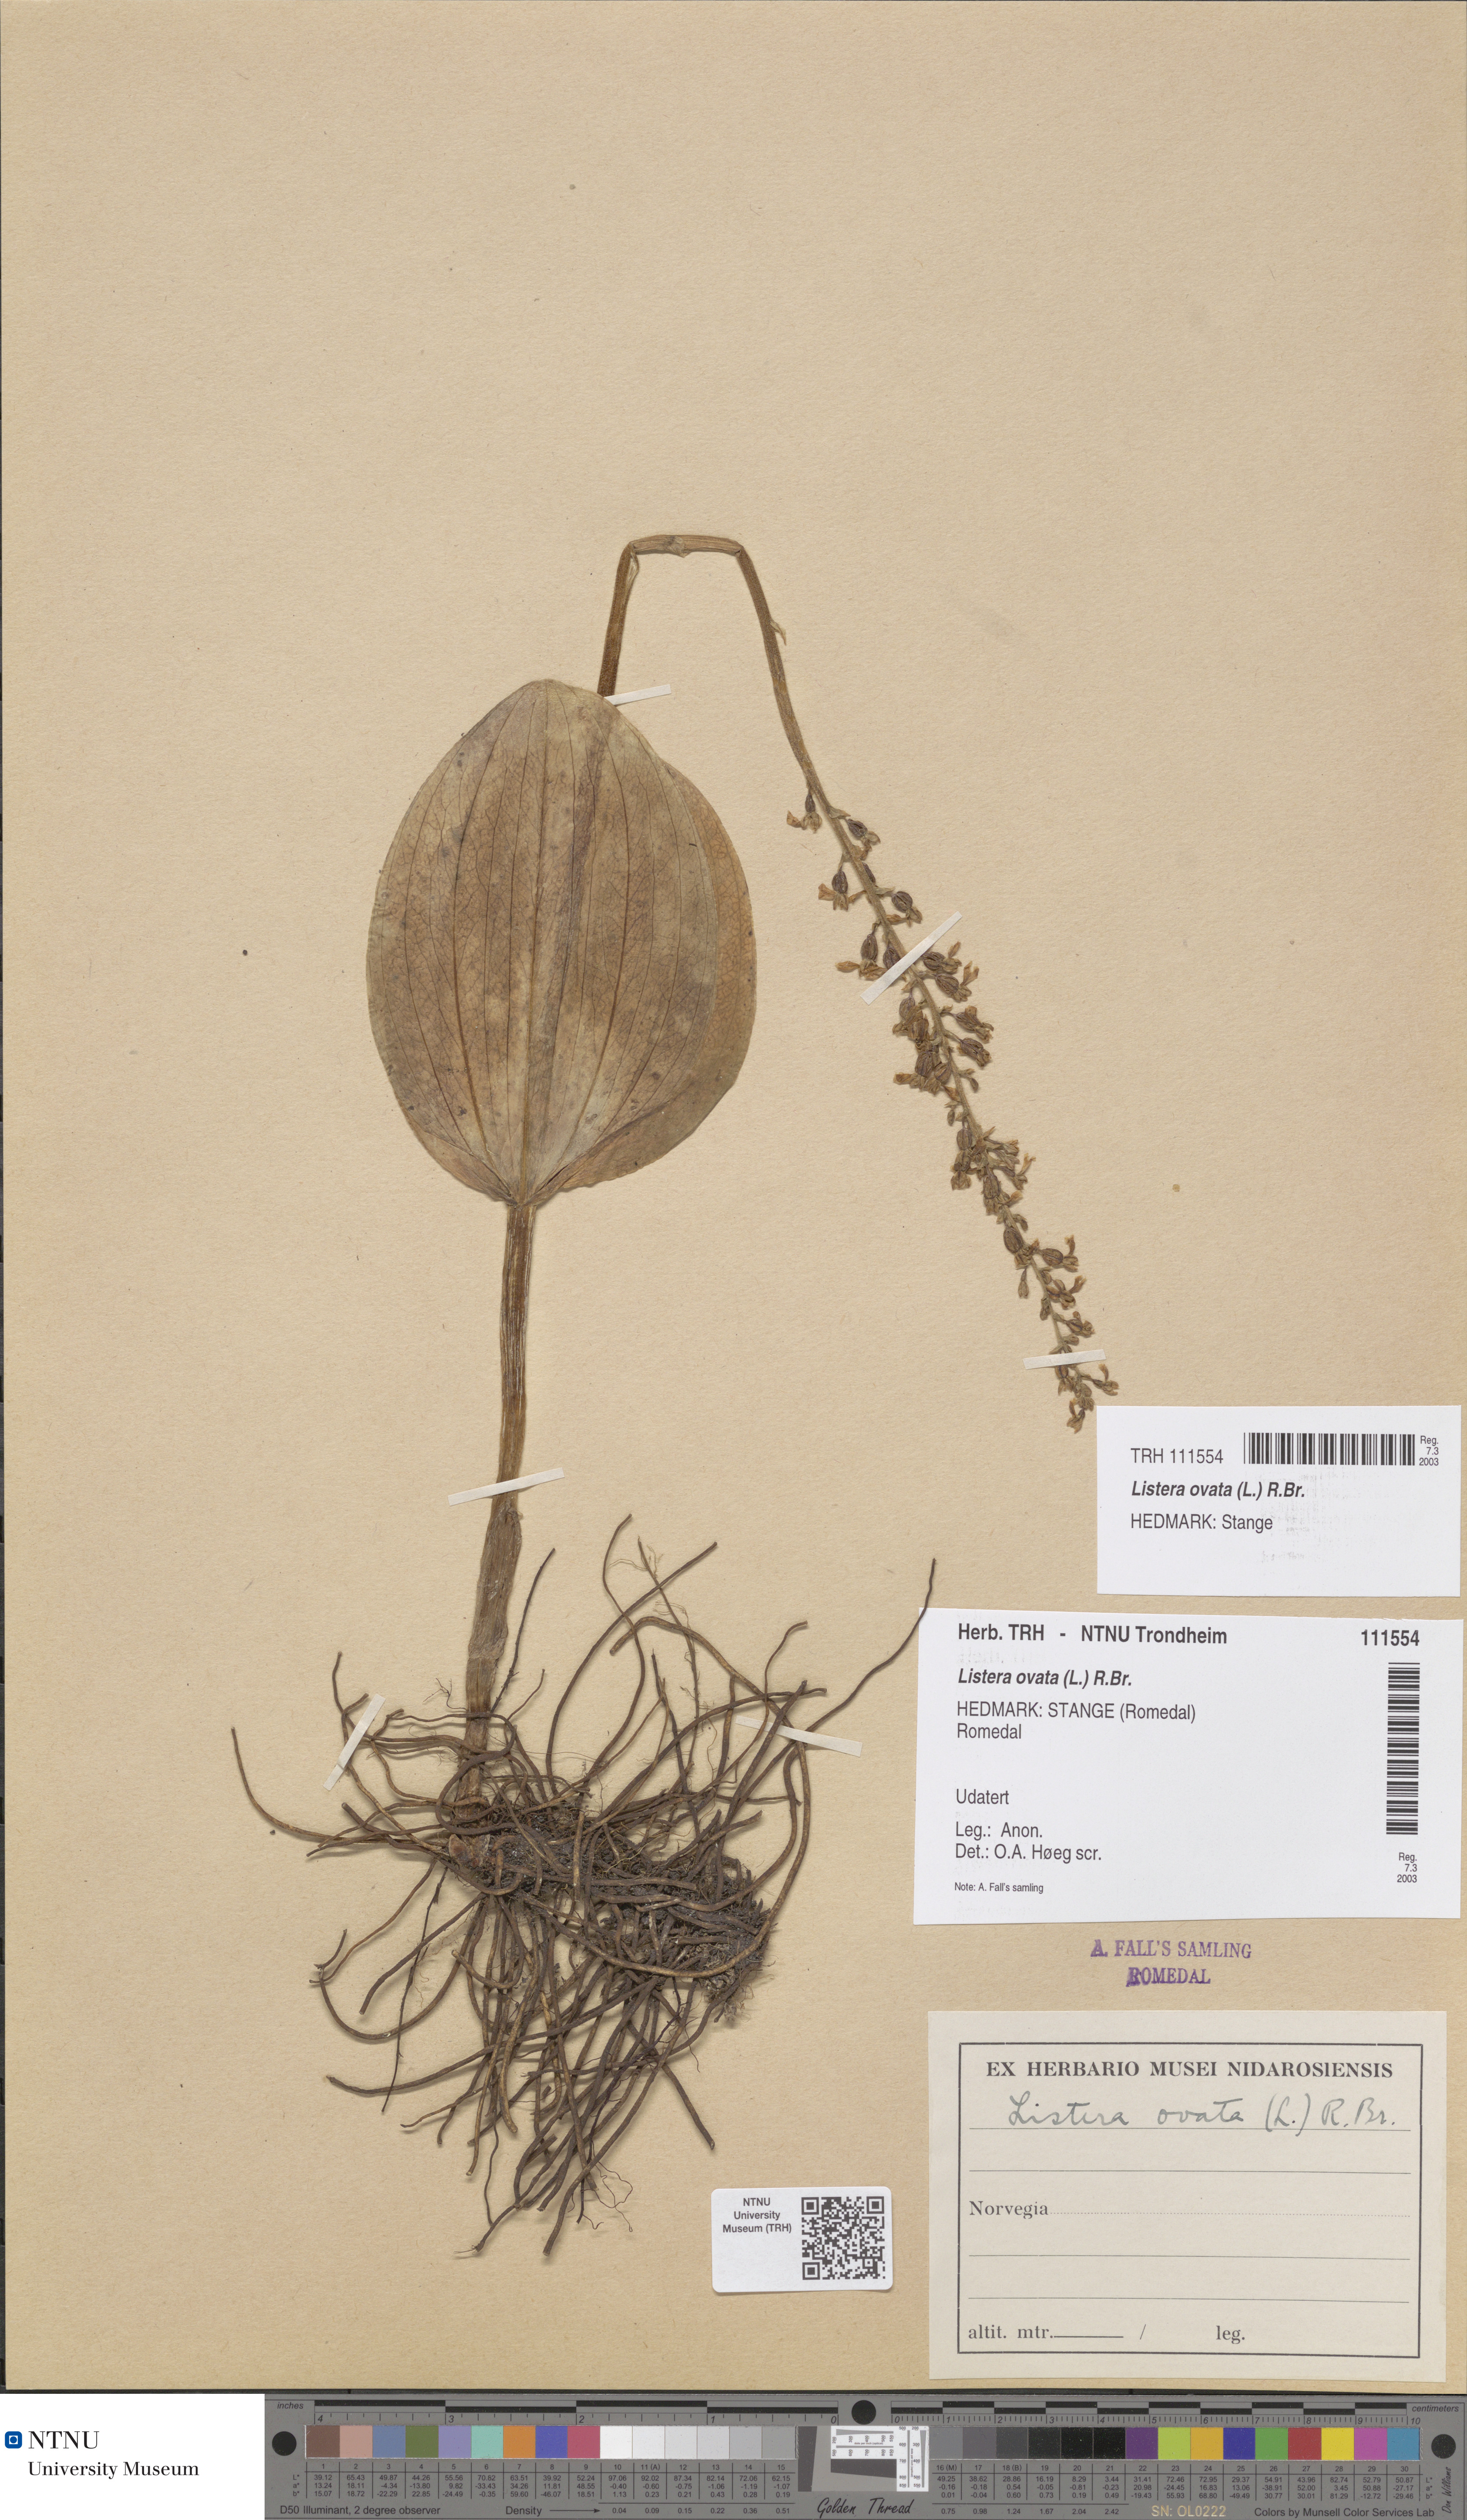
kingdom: Plantae
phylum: Tracheophyta
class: Liliopsida
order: Asparagales
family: Orchidaceae
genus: Neottia
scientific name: Neottia ovata
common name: Common twayblade
